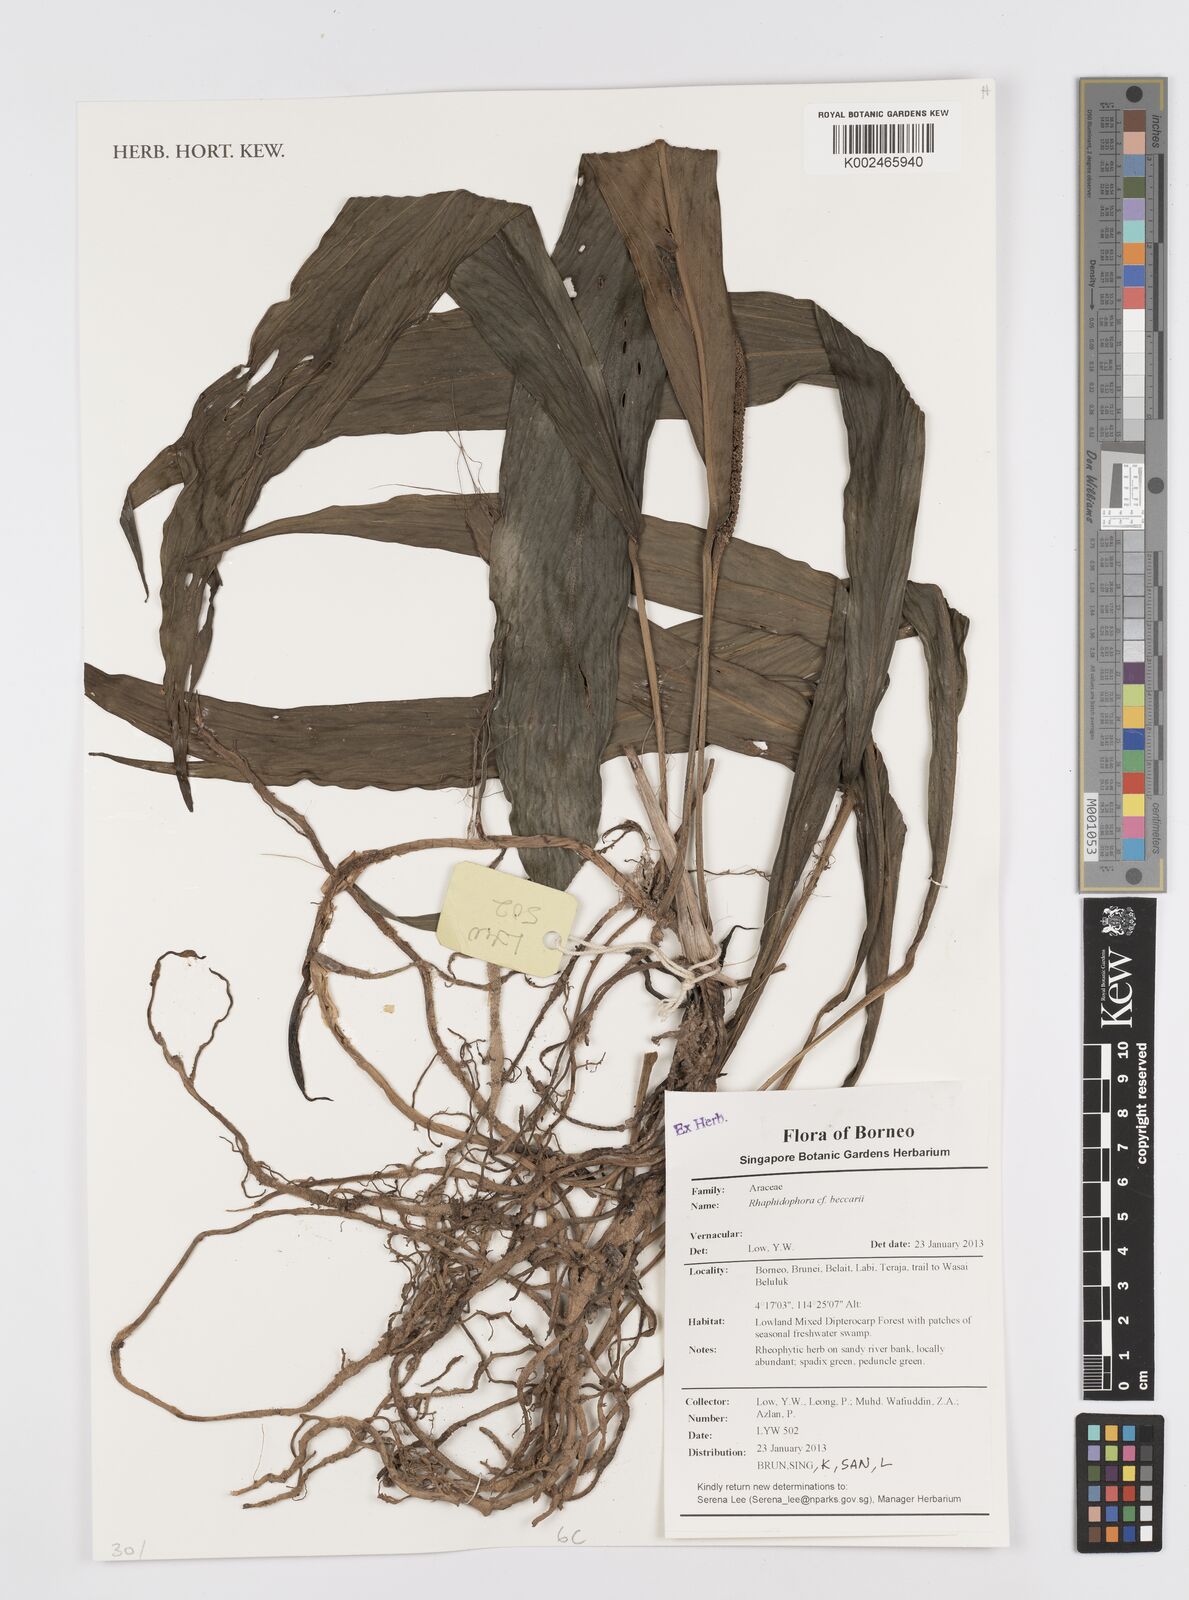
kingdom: Plantae
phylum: Tracheophyta
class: Liliopsida
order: Alismatales
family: Araceae
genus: Rhaphidophora
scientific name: Rhaphidophora beccarii
